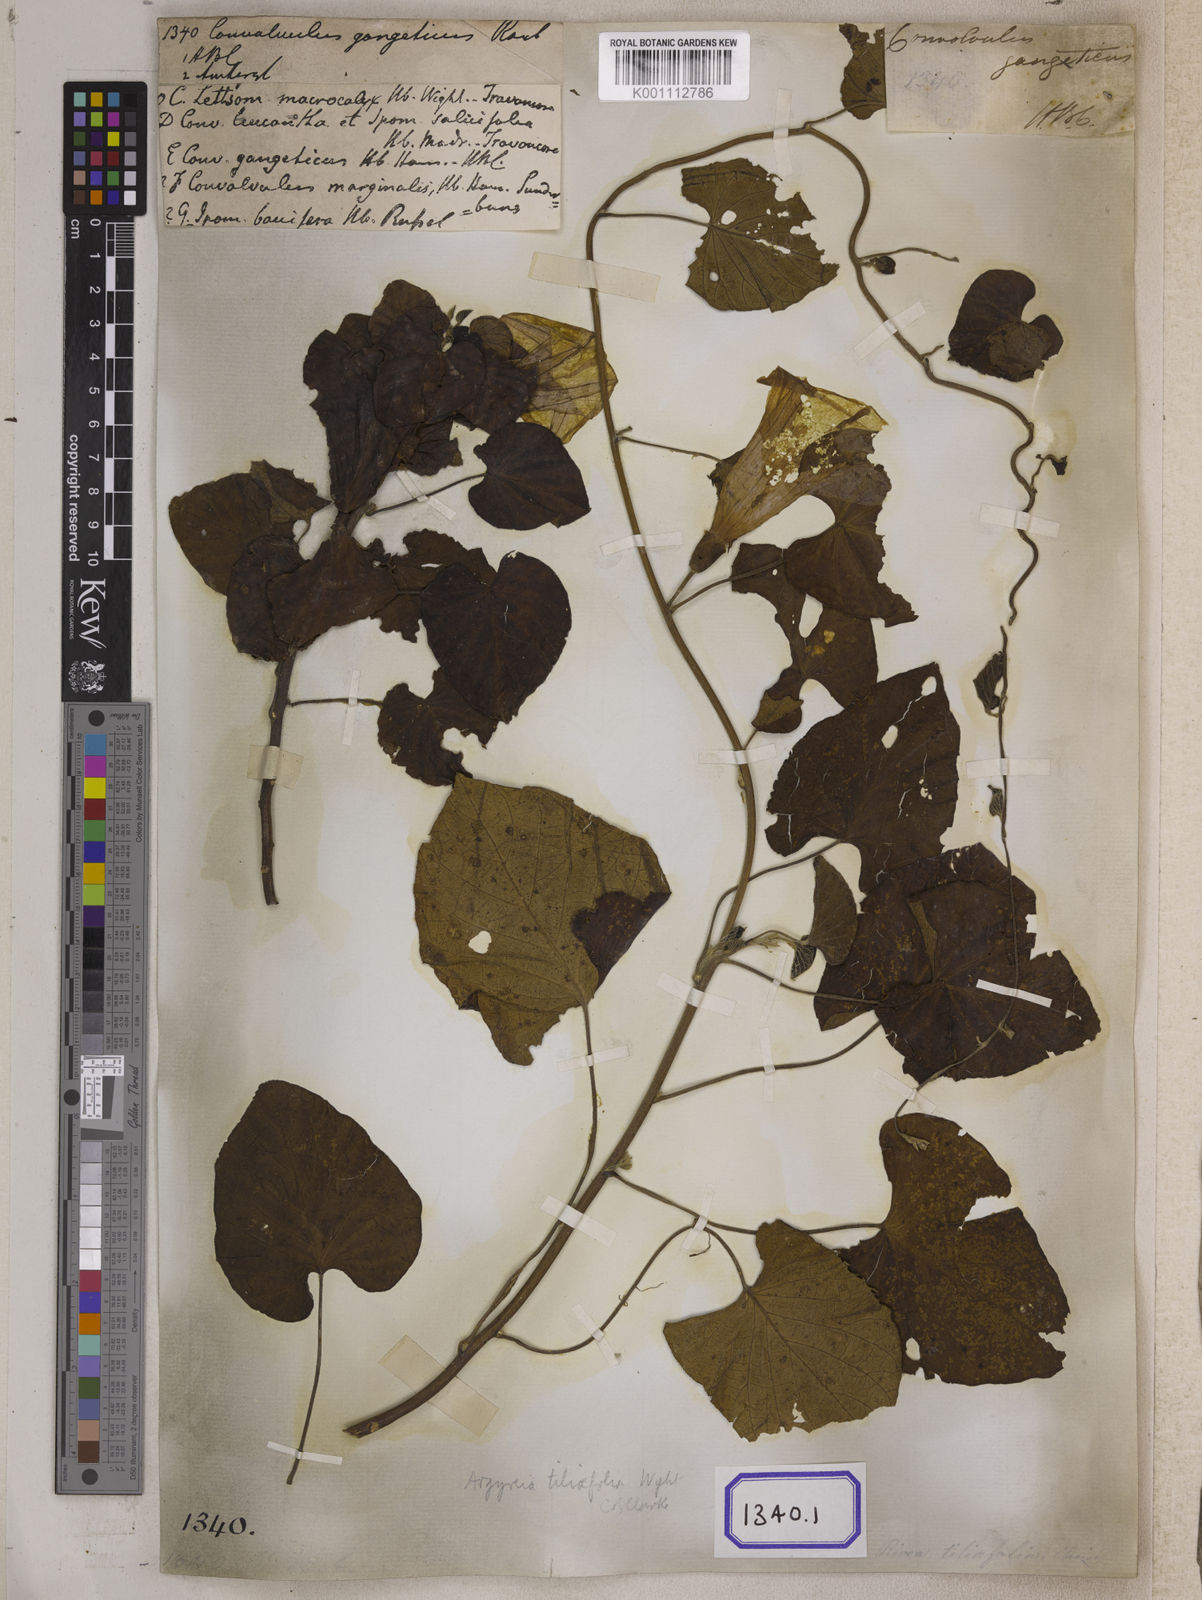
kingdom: Plantae
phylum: Tracheophyta
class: Magnoliopsida
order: Solanales
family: Convolvulaceae
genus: Stictocardia
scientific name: Stictocardia tiliifolia
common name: Spottedheart
